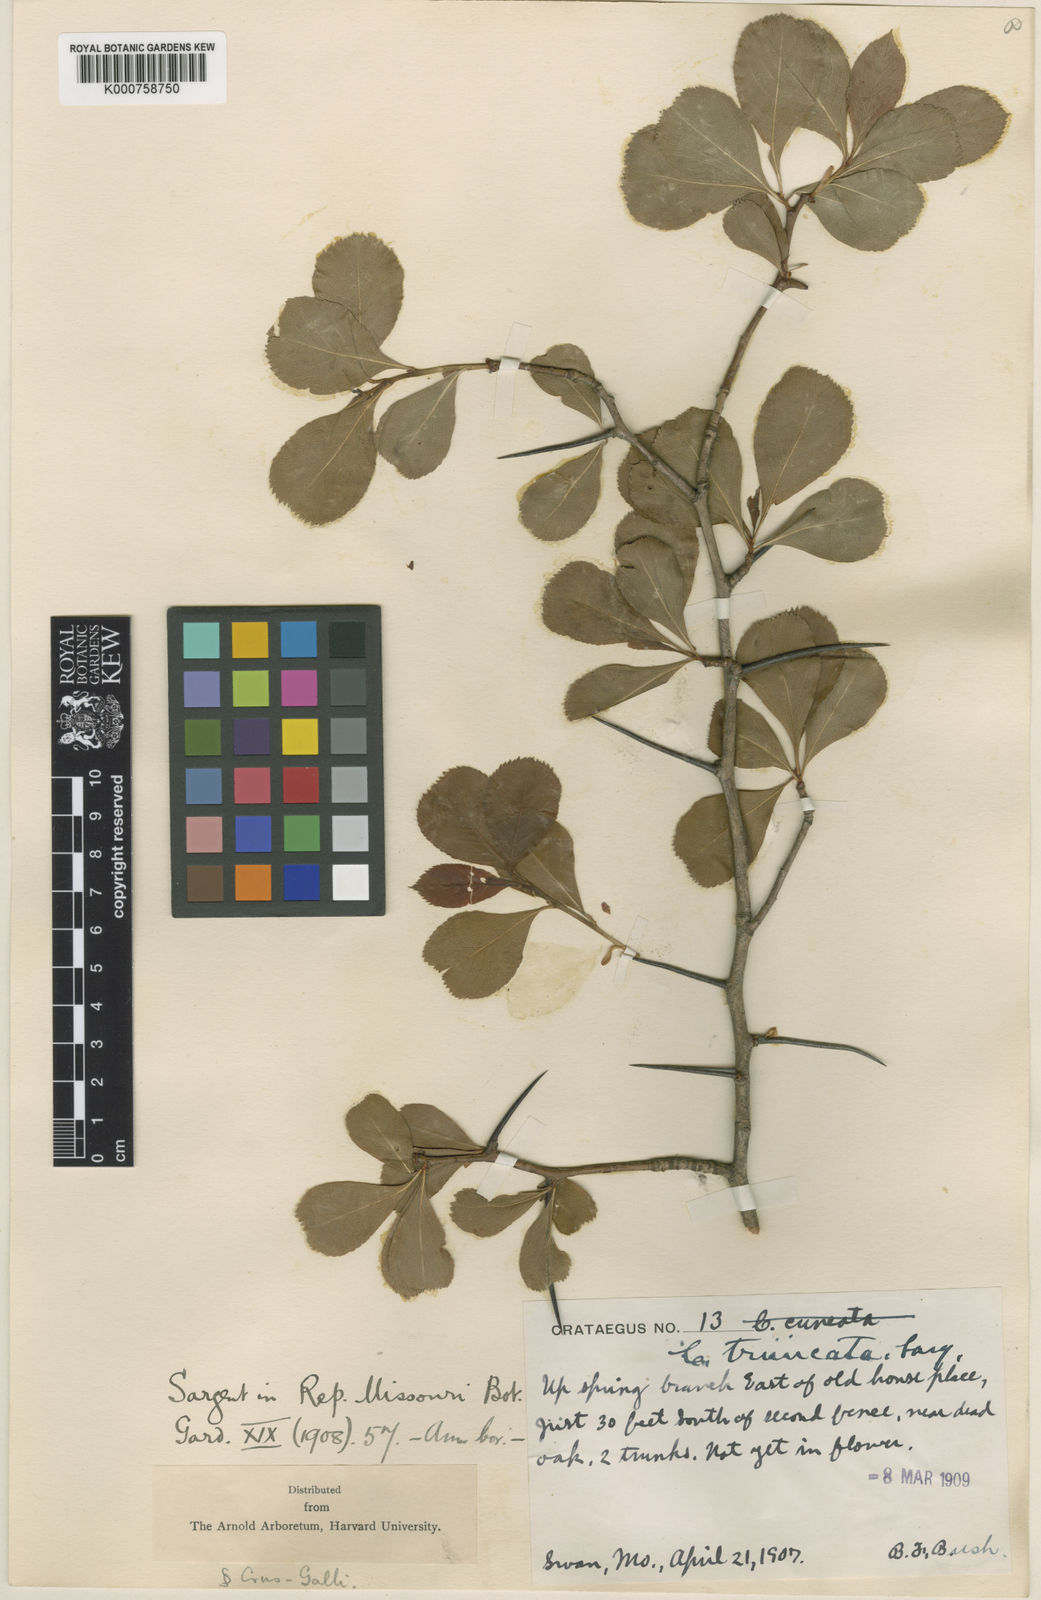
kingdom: Plantae
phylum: Tracheophyta
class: Magnoliopsida
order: Rosales
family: Rosaceae
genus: Crataegus
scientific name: Crataegus crus-galli
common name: Cockspurthorn
